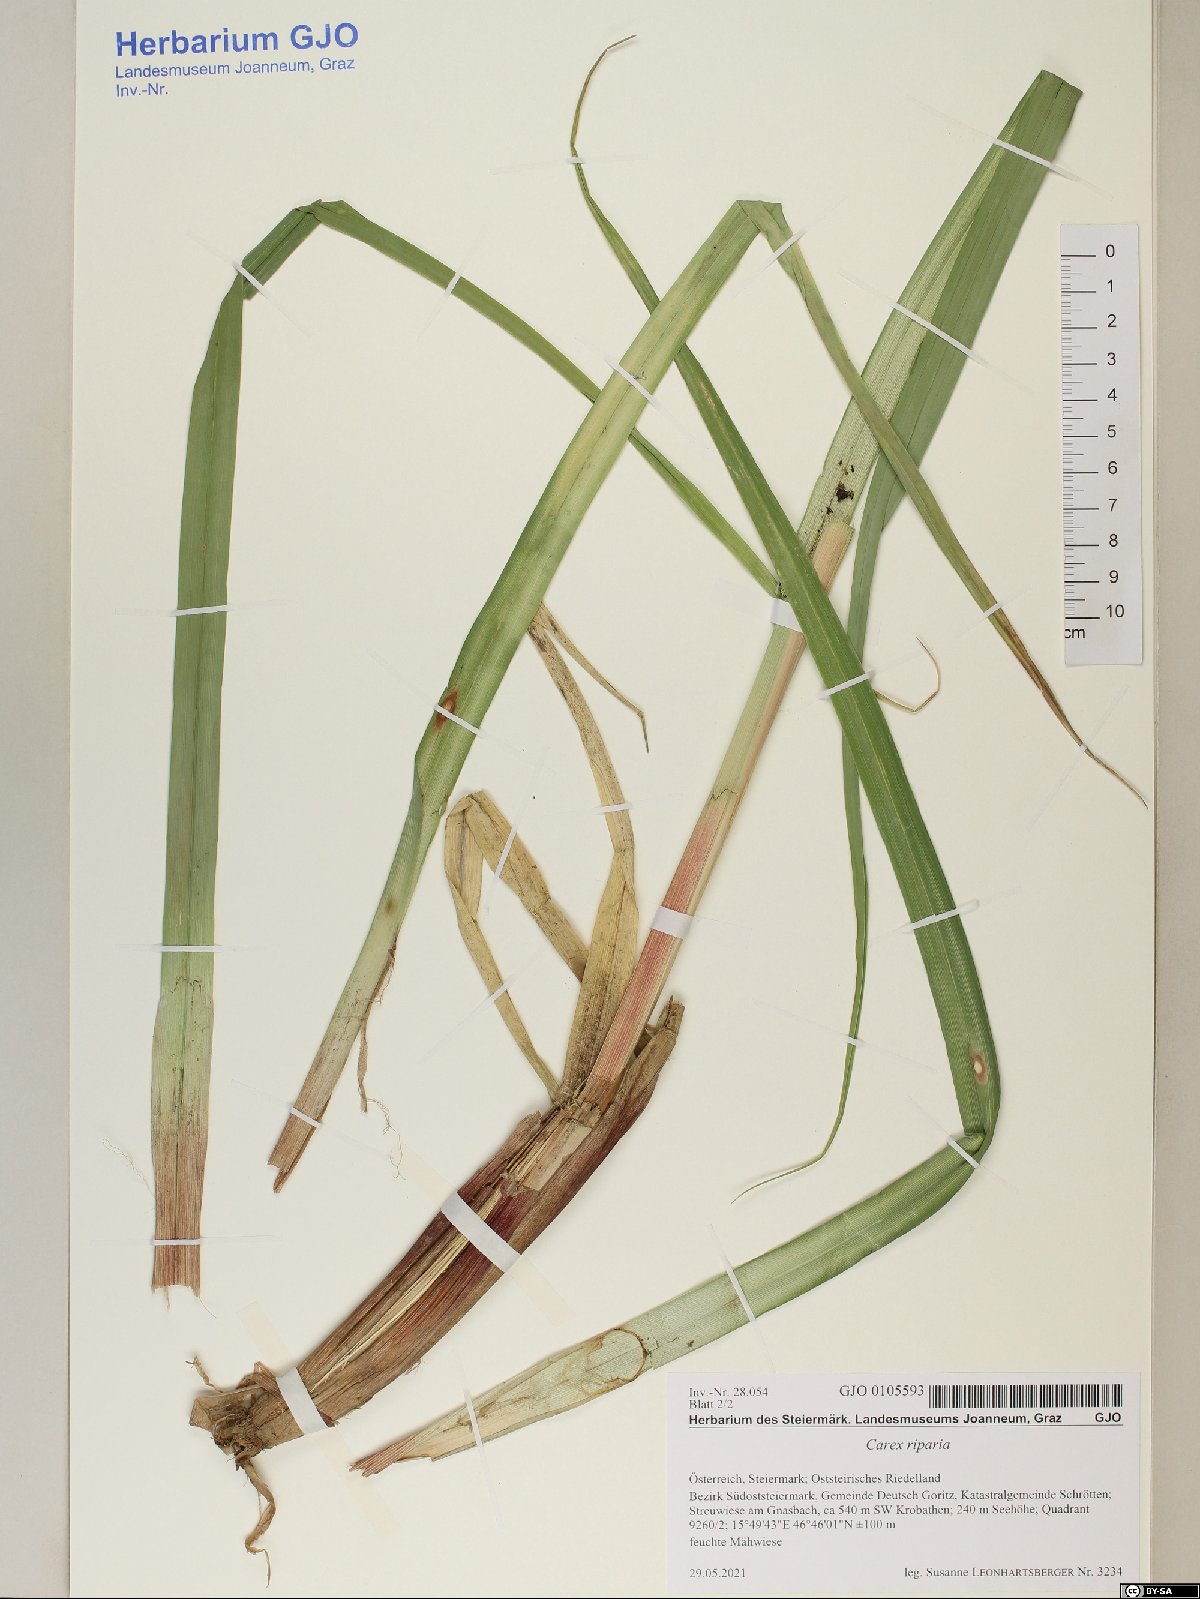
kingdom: Plantae
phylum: Tracheophyta
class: Liliopsida
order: Poales
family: Cyperaceae
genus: Carex
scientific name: Carex riparia
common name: Greater pond-sedge
